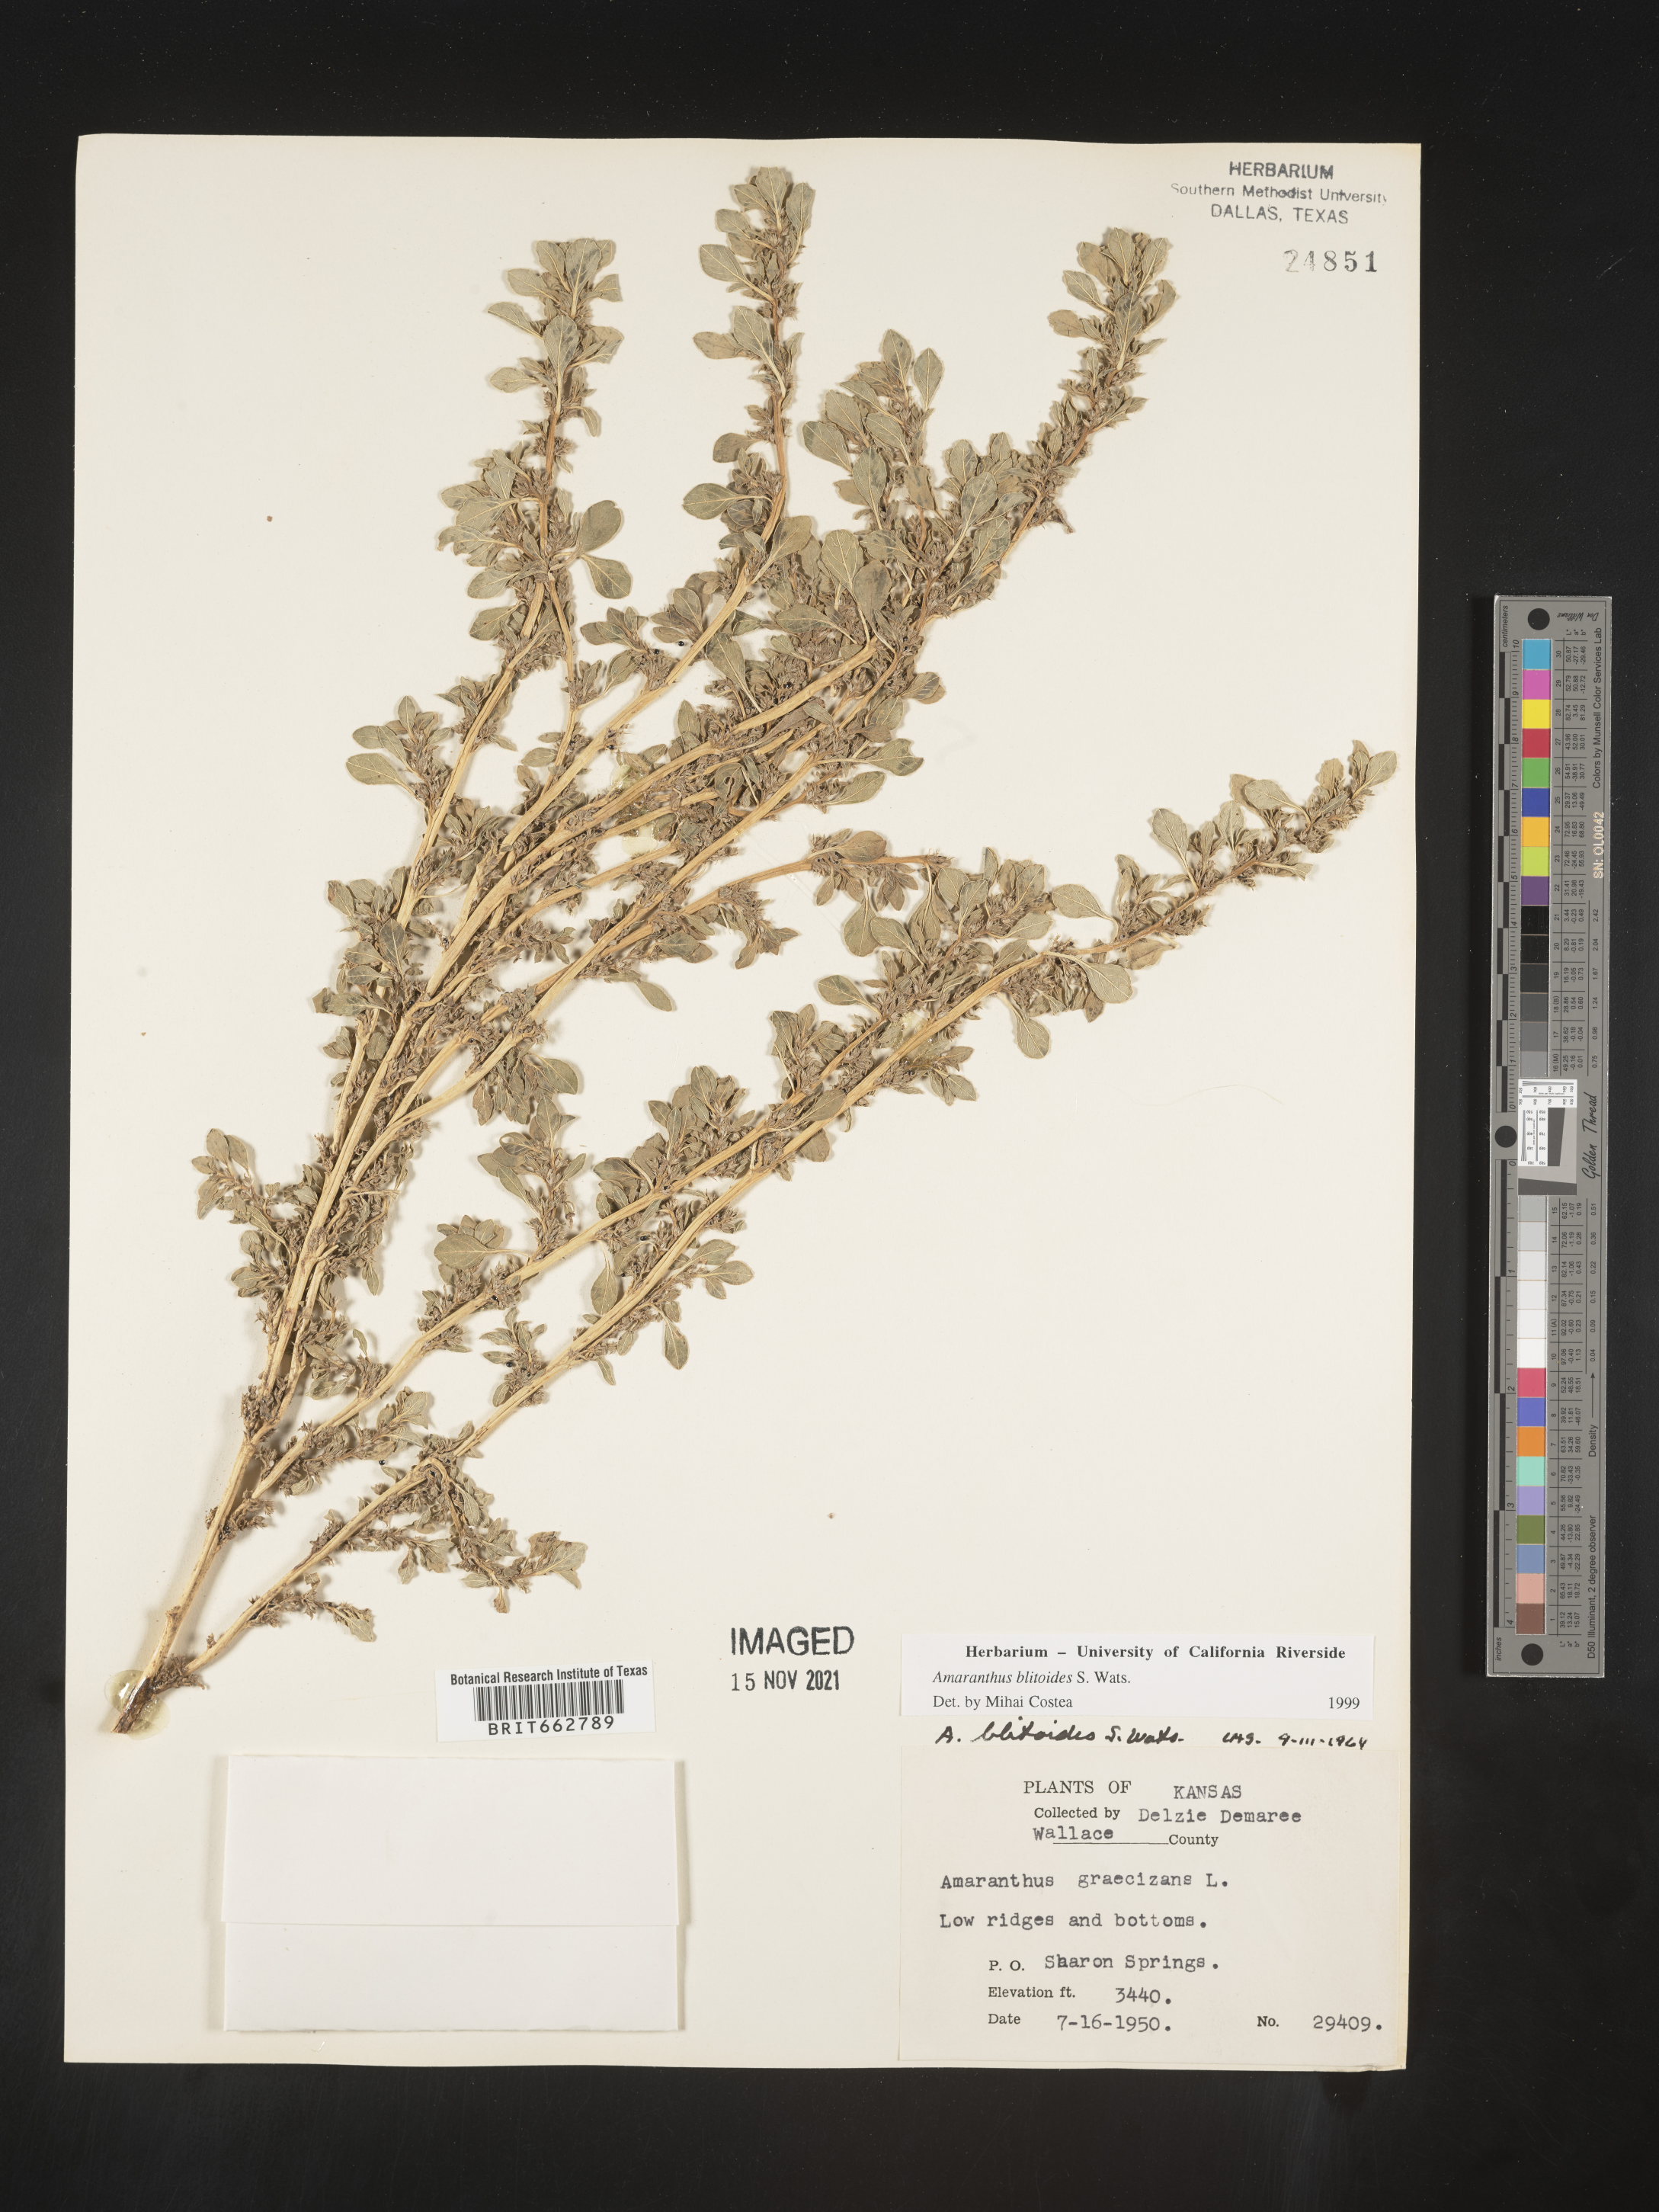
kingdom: Plantae
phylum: Tracheophyta
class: Magnoliopsida
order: Caryophyllales
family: Amaranthaceae
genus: Amaranthus
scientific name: Amaranthus blitoides
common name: Prostrate pigweed
